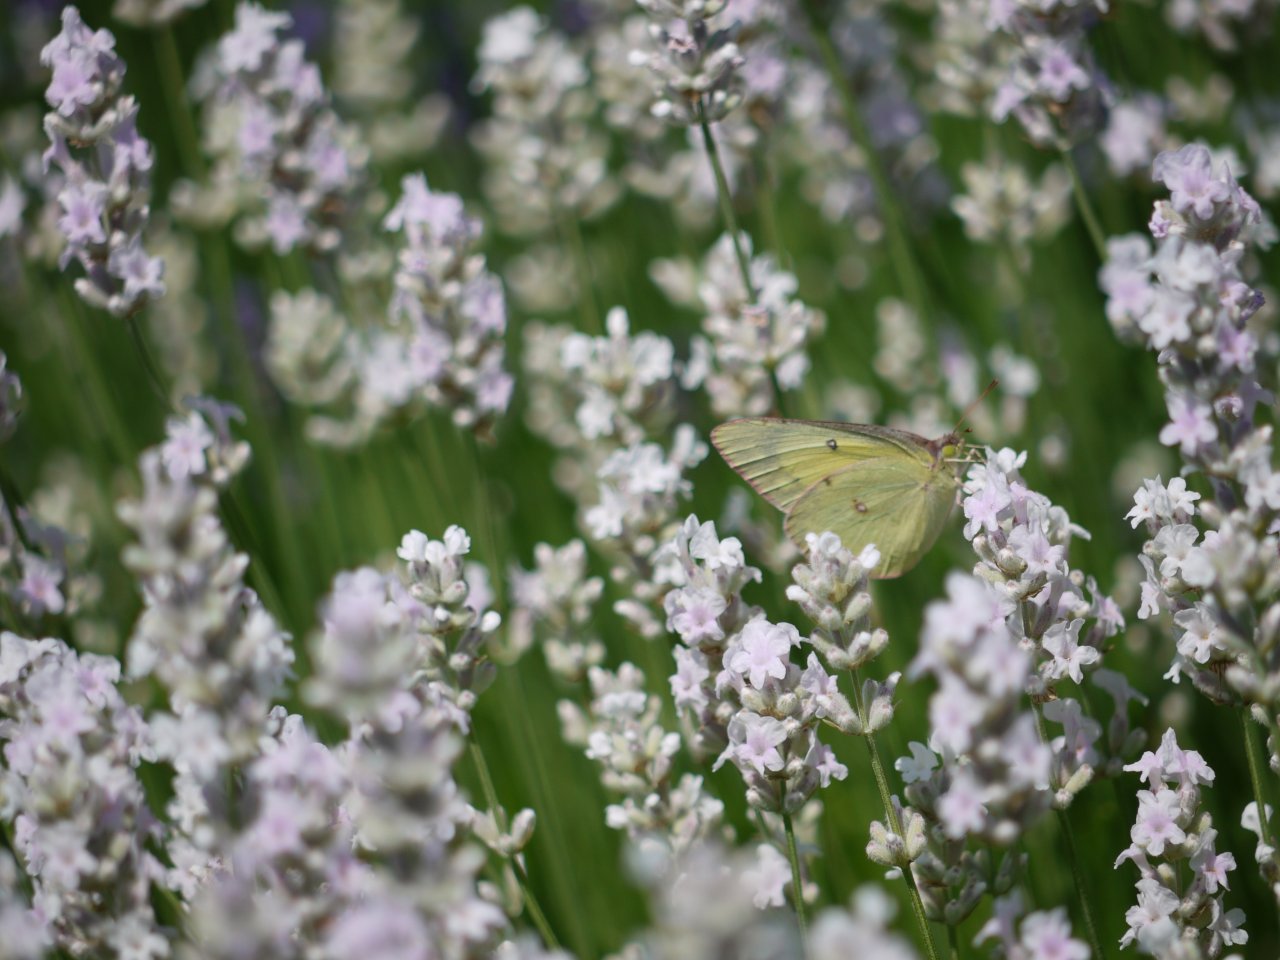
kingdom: Animalia
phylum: Arthropoda
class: Insecta
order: Lepidoptera
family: Pieridae
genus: Colias
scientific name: Colias philodice
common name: Clouded Sulphur
